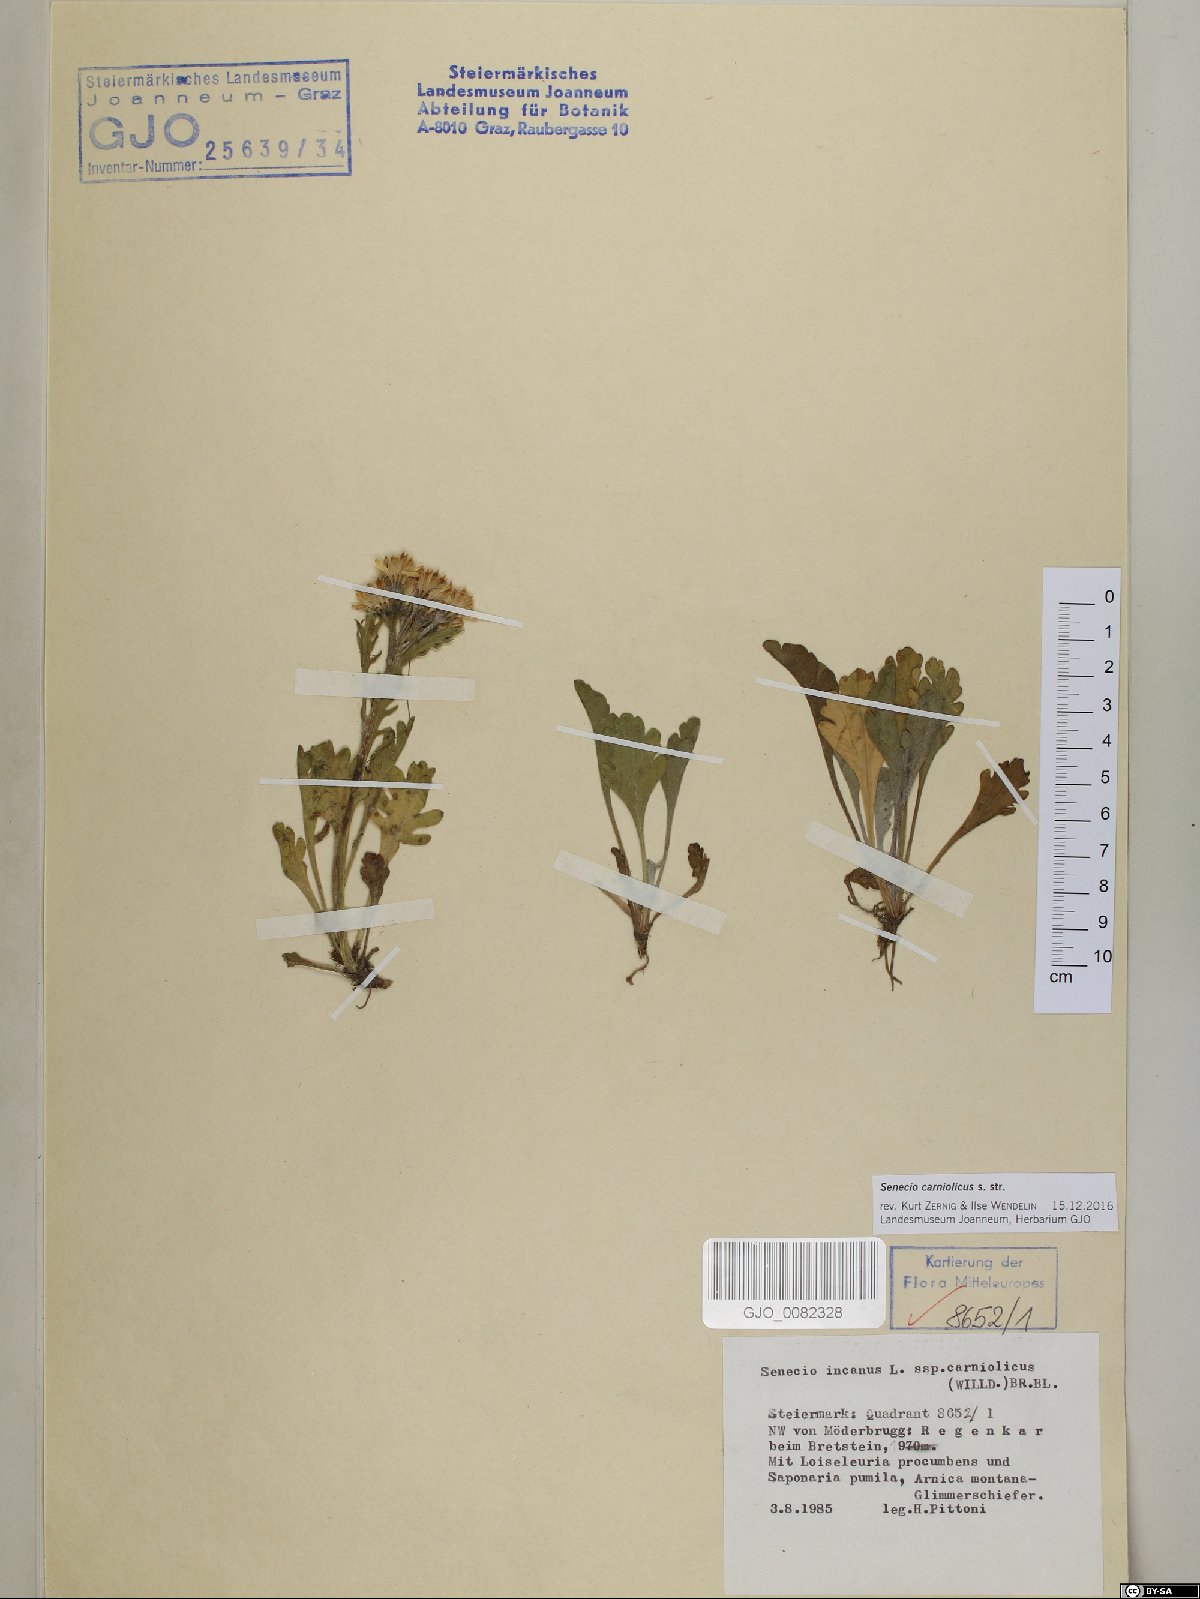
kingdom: Plantae
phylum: Tracheophyta
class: Magnoliopsida
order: Asterales
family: Asteraceae
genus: Jacobaea
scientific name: Jacobaea disjuncta
